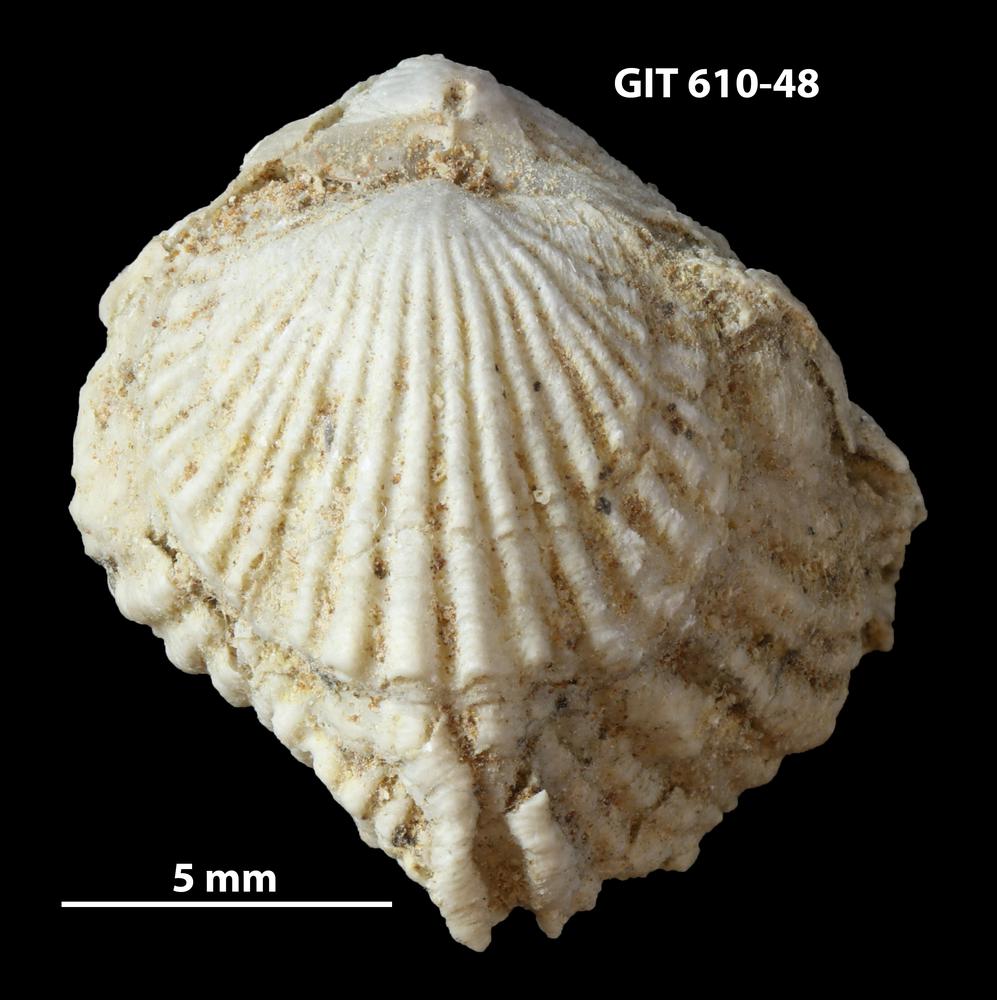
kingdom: Animalia
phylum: Brachiopoda
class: Rhynchonellata
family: Triplesiidae
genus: Cliftonia
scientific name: Cliftonia
